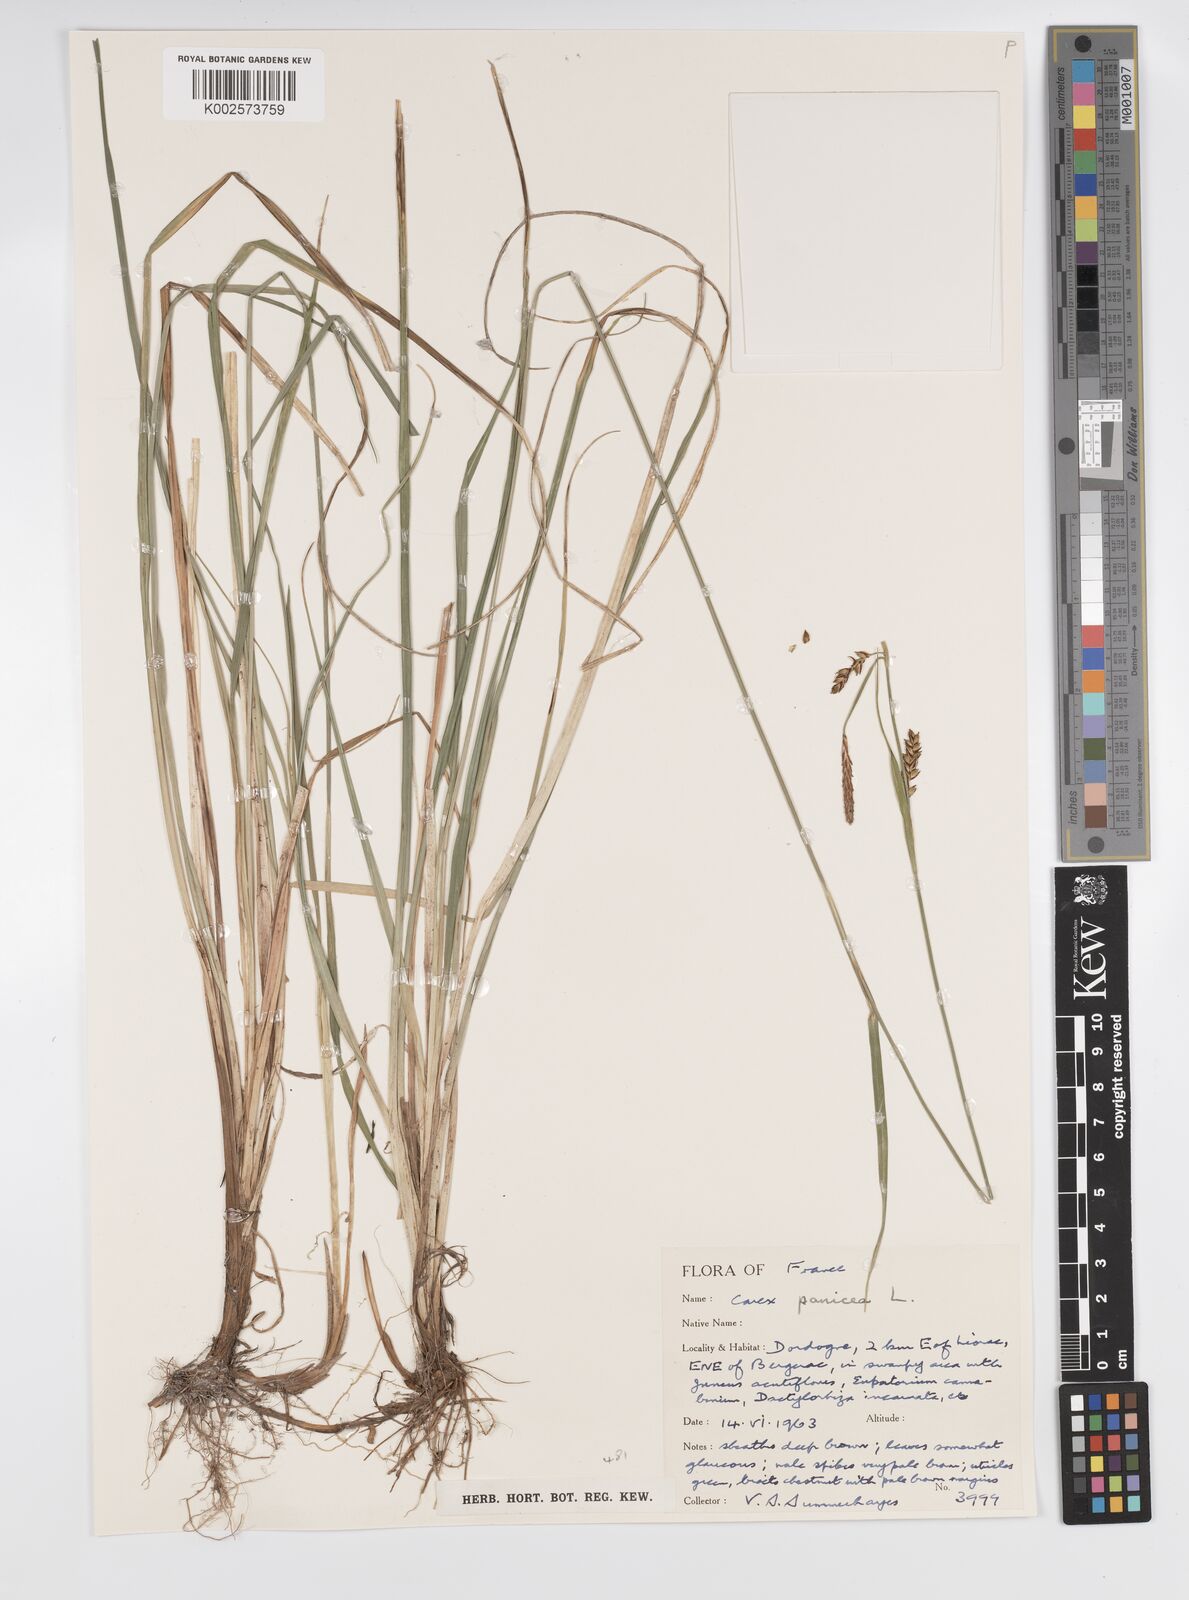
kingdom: Plantae
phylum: Tracheophyta
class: Liliopsida
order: Poales
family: Cyperaceae
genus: Carex
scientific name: Carex panicea
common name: Carnation sedge
